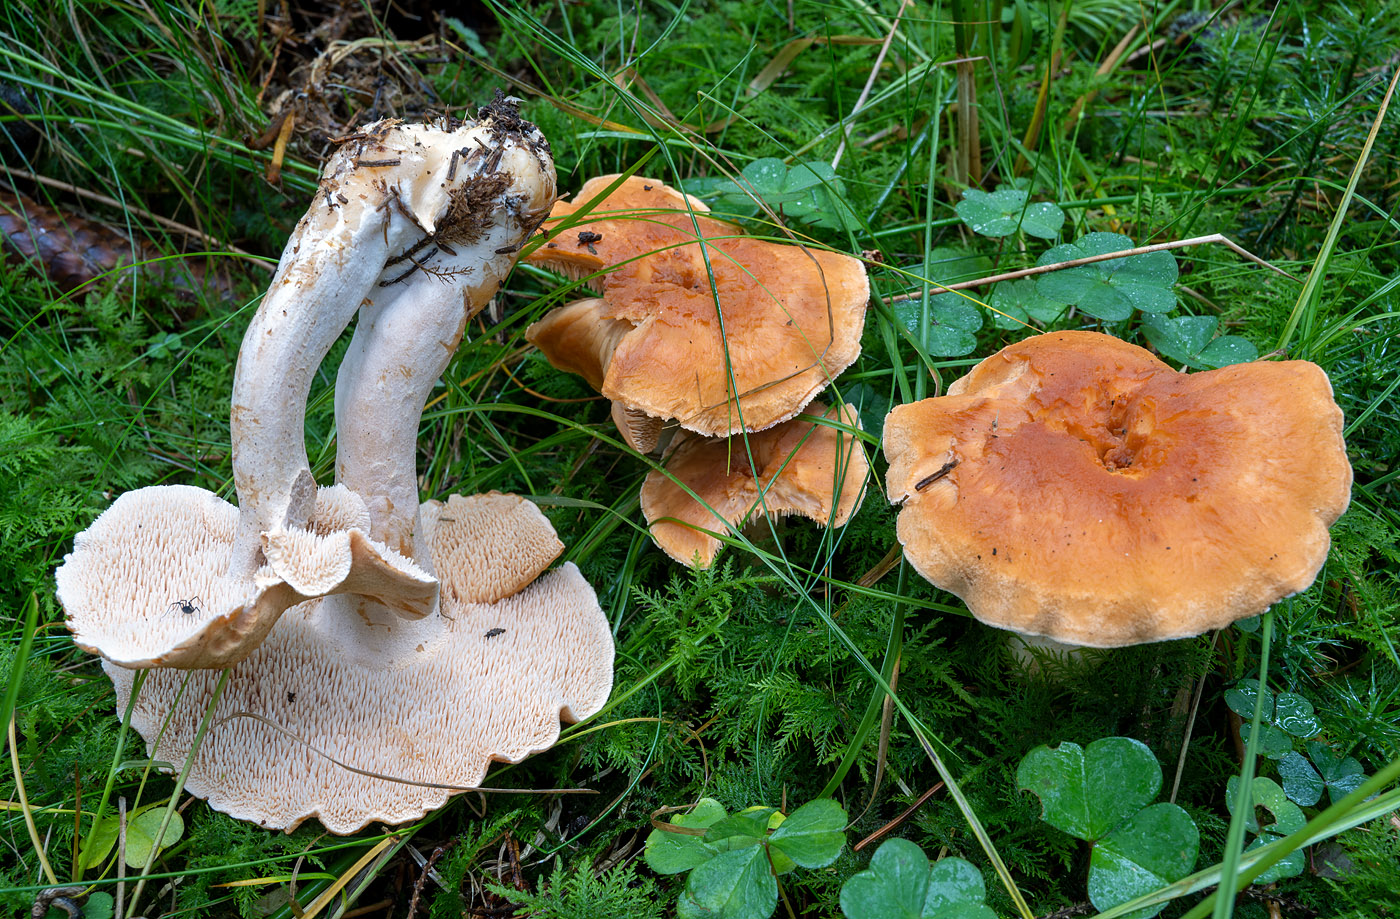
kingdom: Fungi
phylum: Basidiomycota
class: Agaricomycetes
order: Cantharellales
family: Hydnaceae
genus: Hydnum
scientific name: Hydnum mulsicolor
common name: mjødfarvet pigsvamp
